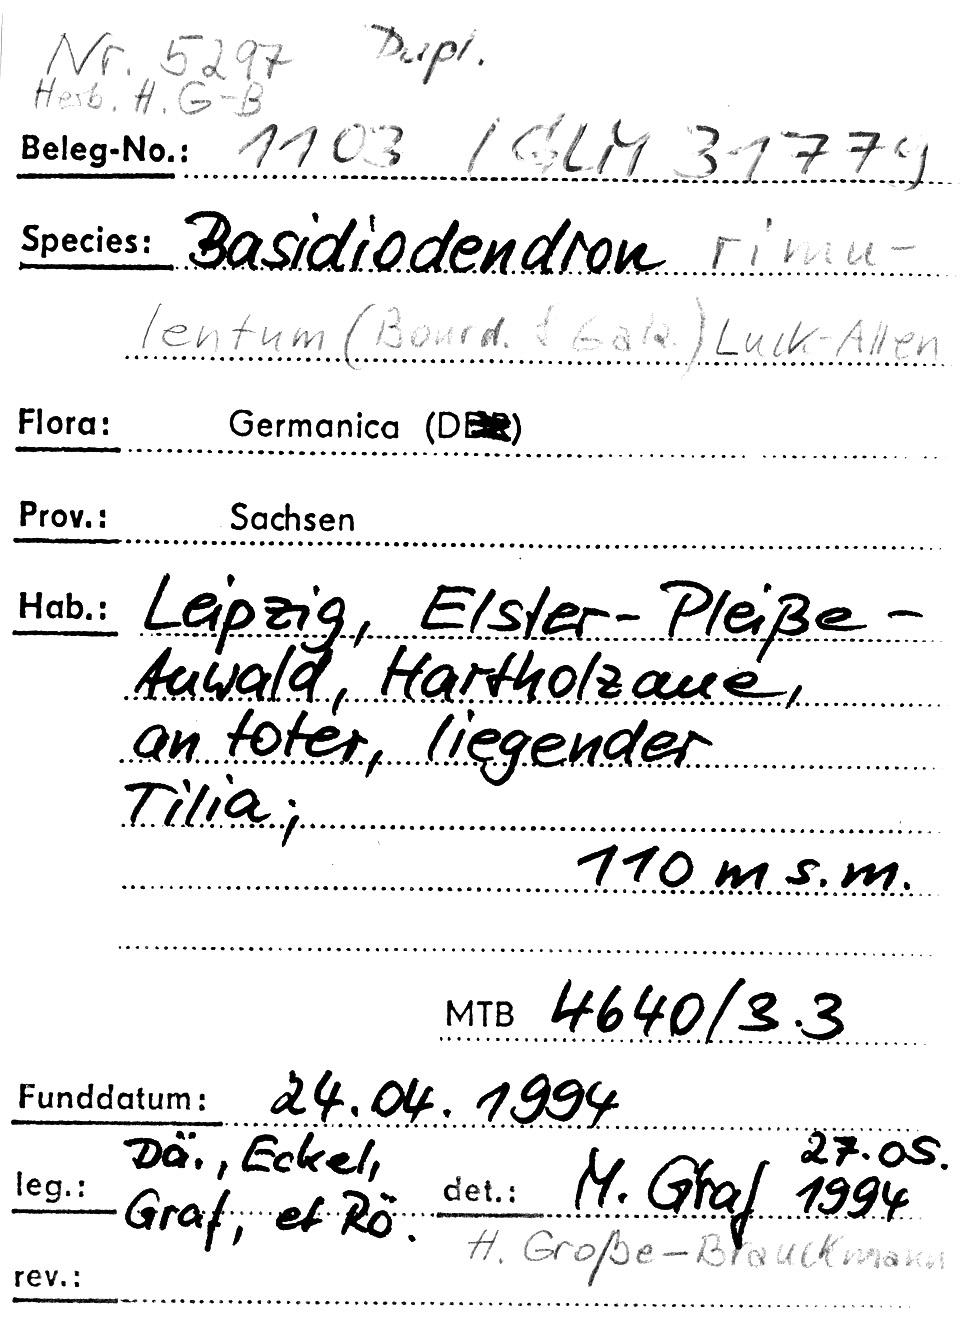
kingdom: Plantae
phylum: Tracheophyta
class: Magnoliopsida
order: Malvales
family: Malvaceae
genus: Tilia
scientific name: Tilia
